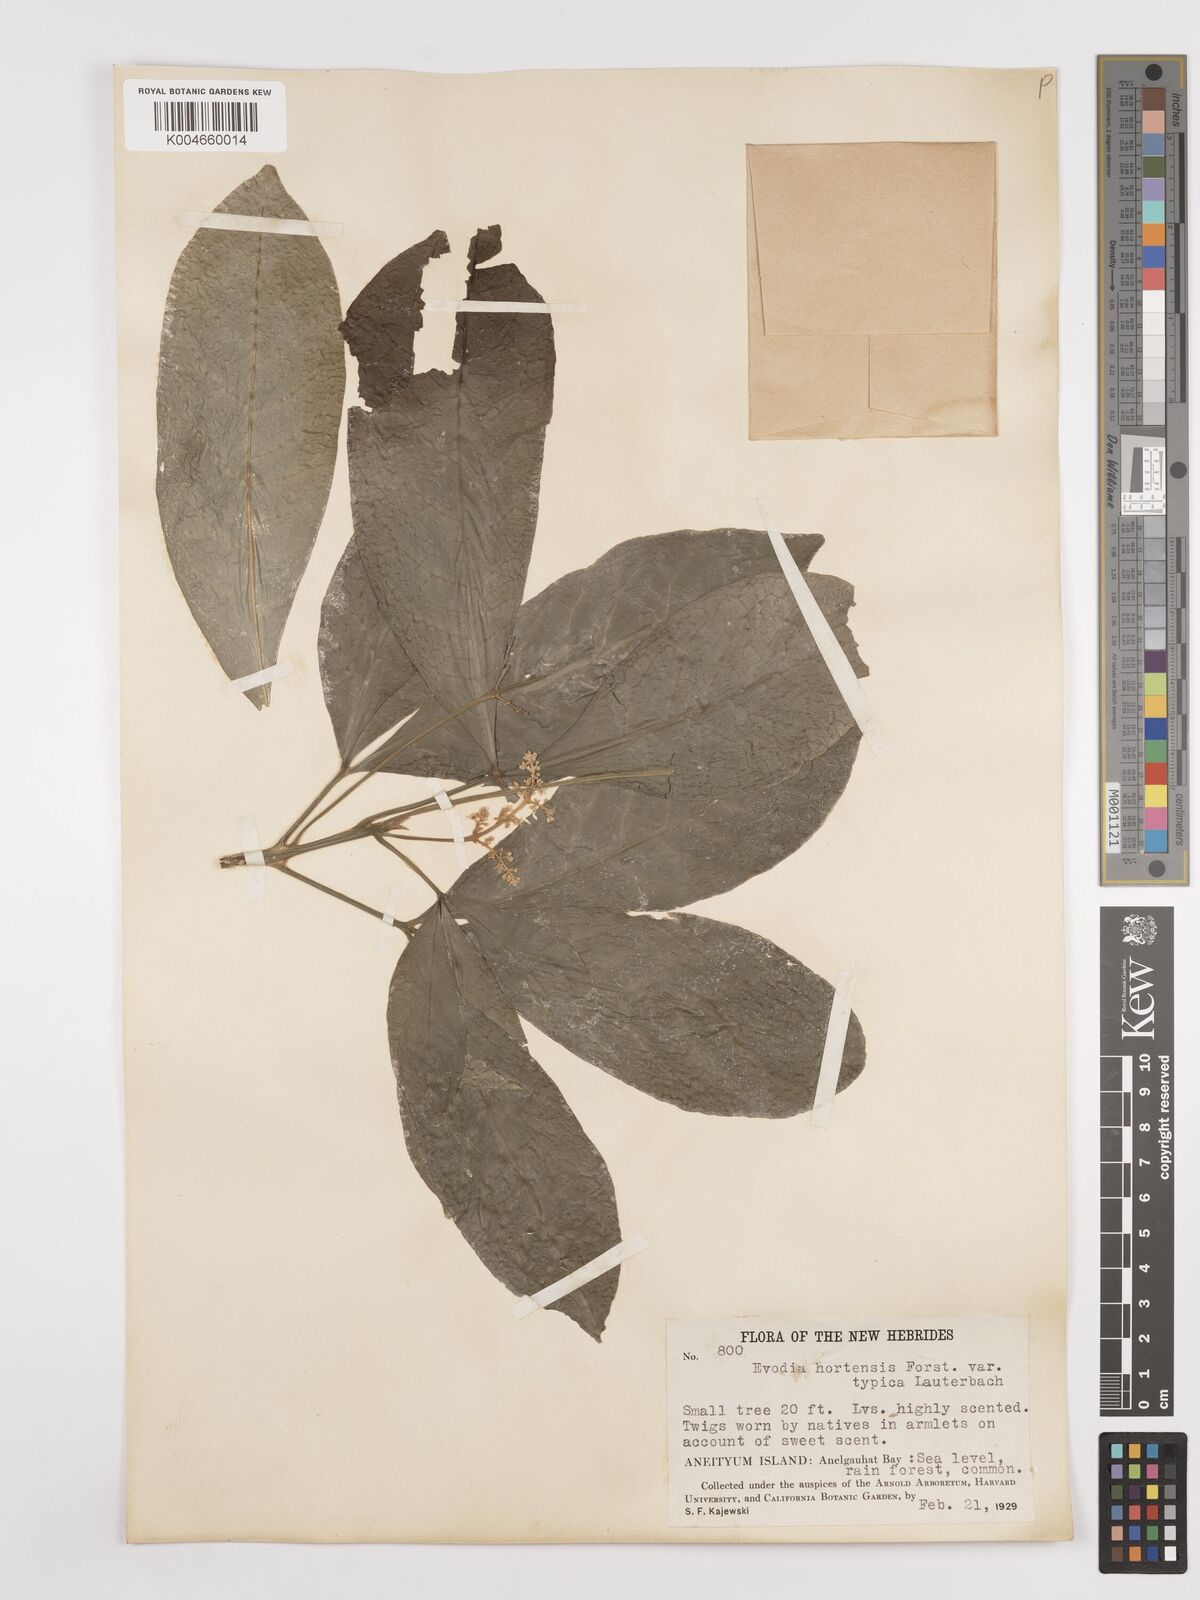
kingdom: Plantae
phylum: Tracheophyta
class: Magnoliopsida
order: Sapindales
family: Rutaceae
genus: Euodia
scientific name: Euodia hortensis
